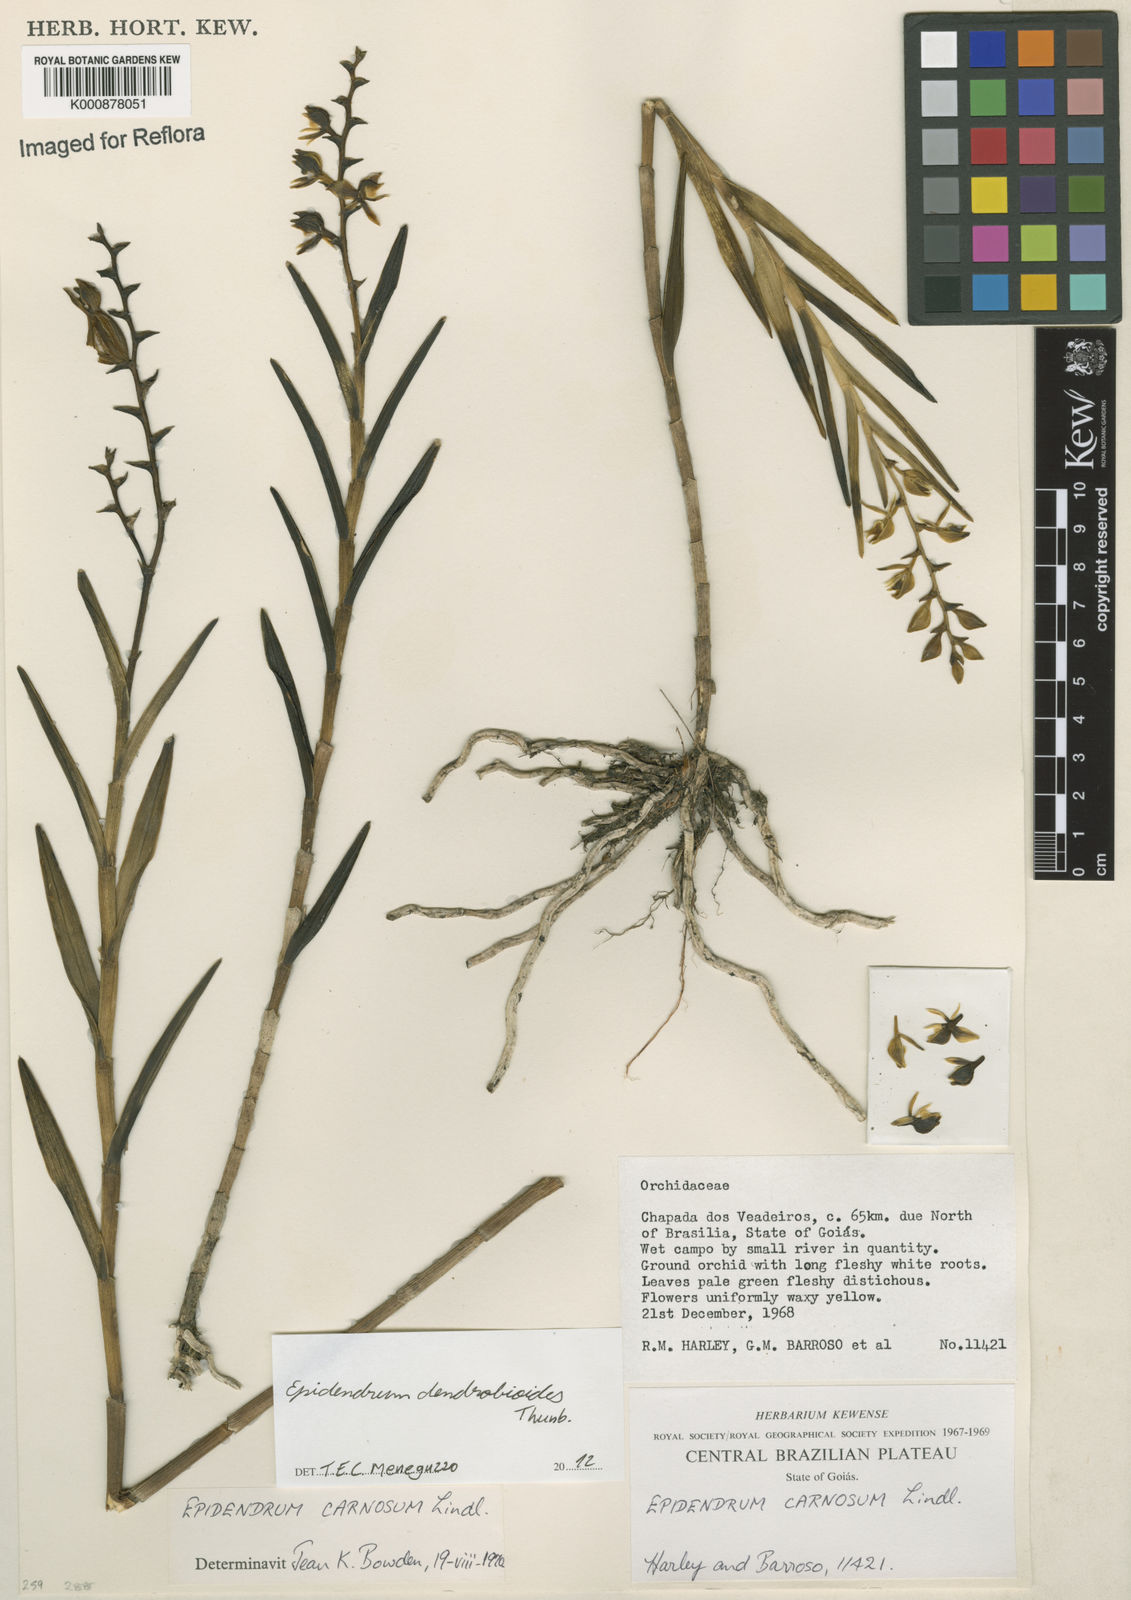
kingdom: Plantae
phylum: Tracheophyta
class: Liliopsida
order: Asparagales
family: Orchidaceae
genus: Epidendrum
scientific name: Epidendrum dendrobioides
